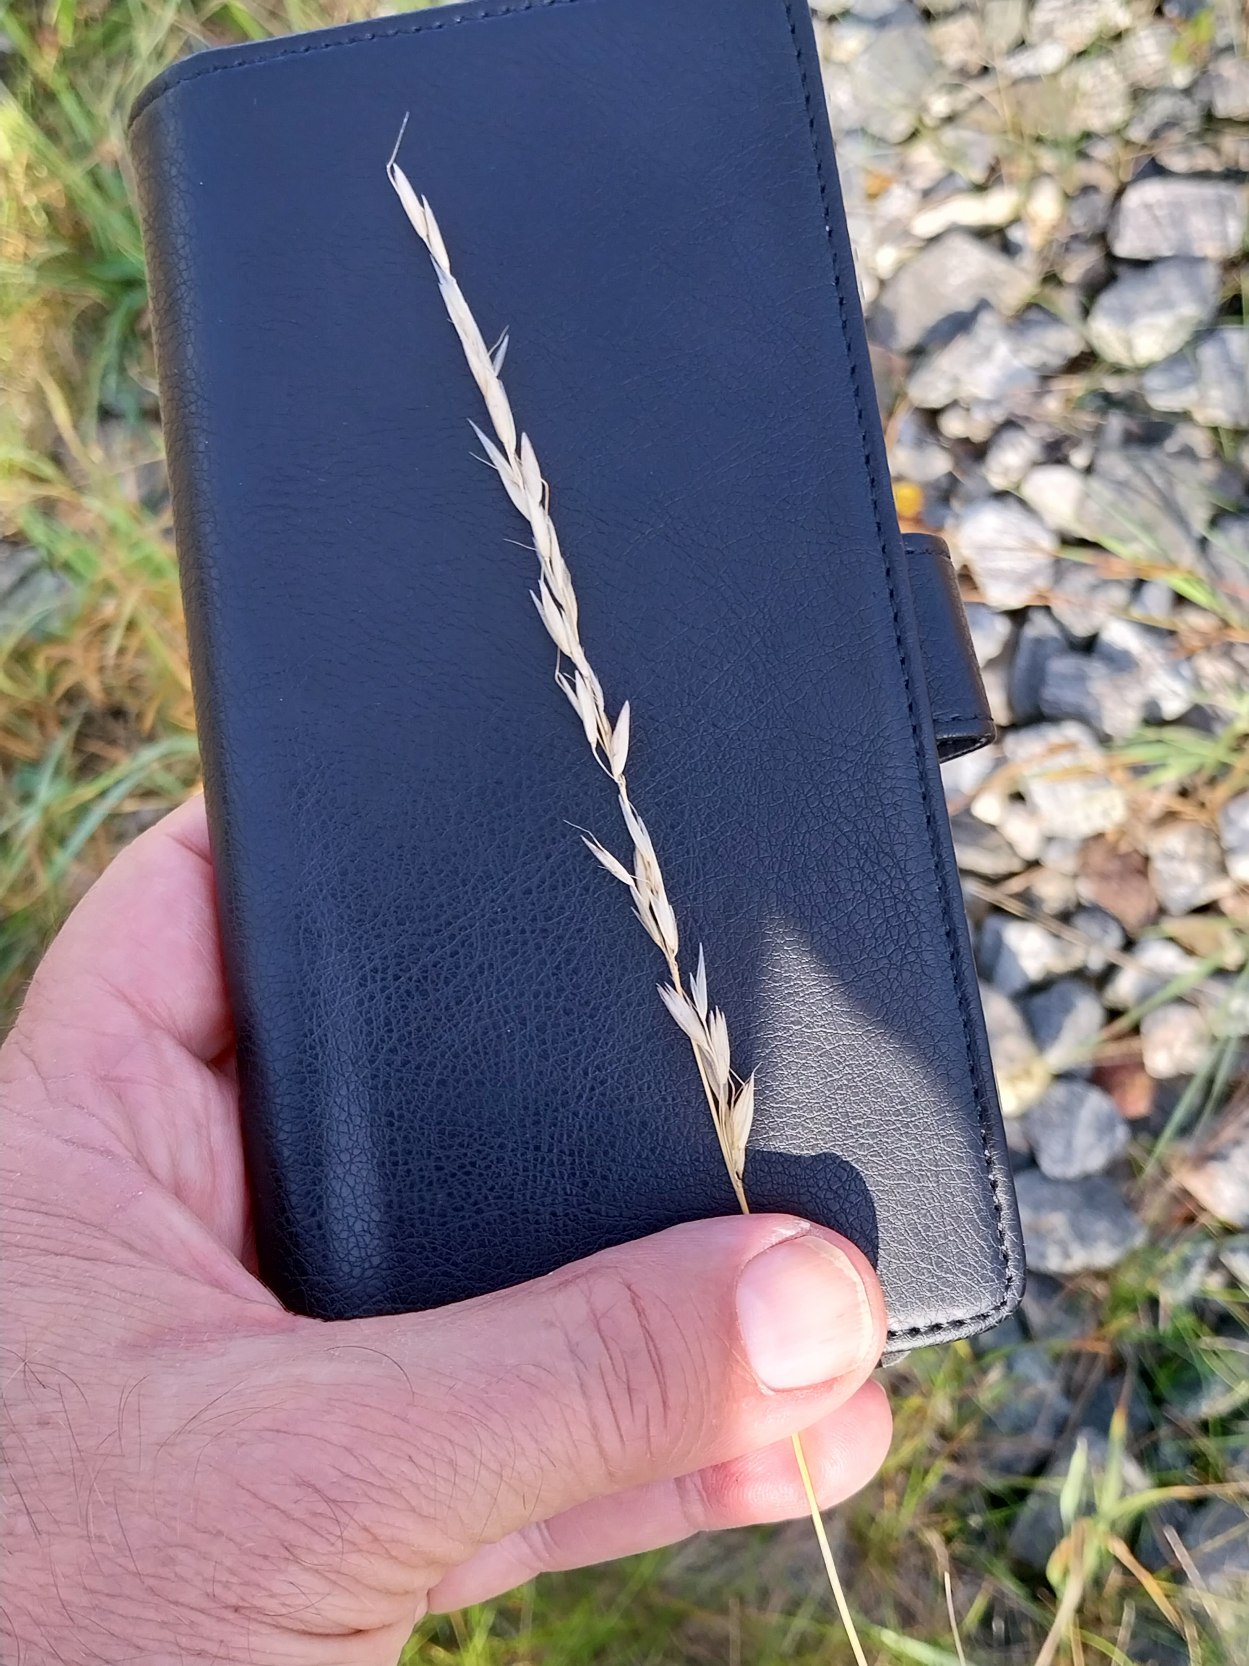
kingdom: Plantae
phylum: Tracheophyta
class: Liliopsida
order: Poales
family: Poaceae
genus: Arrhenatherum
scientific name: Arrhenatherum elatius
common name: Draphavre
